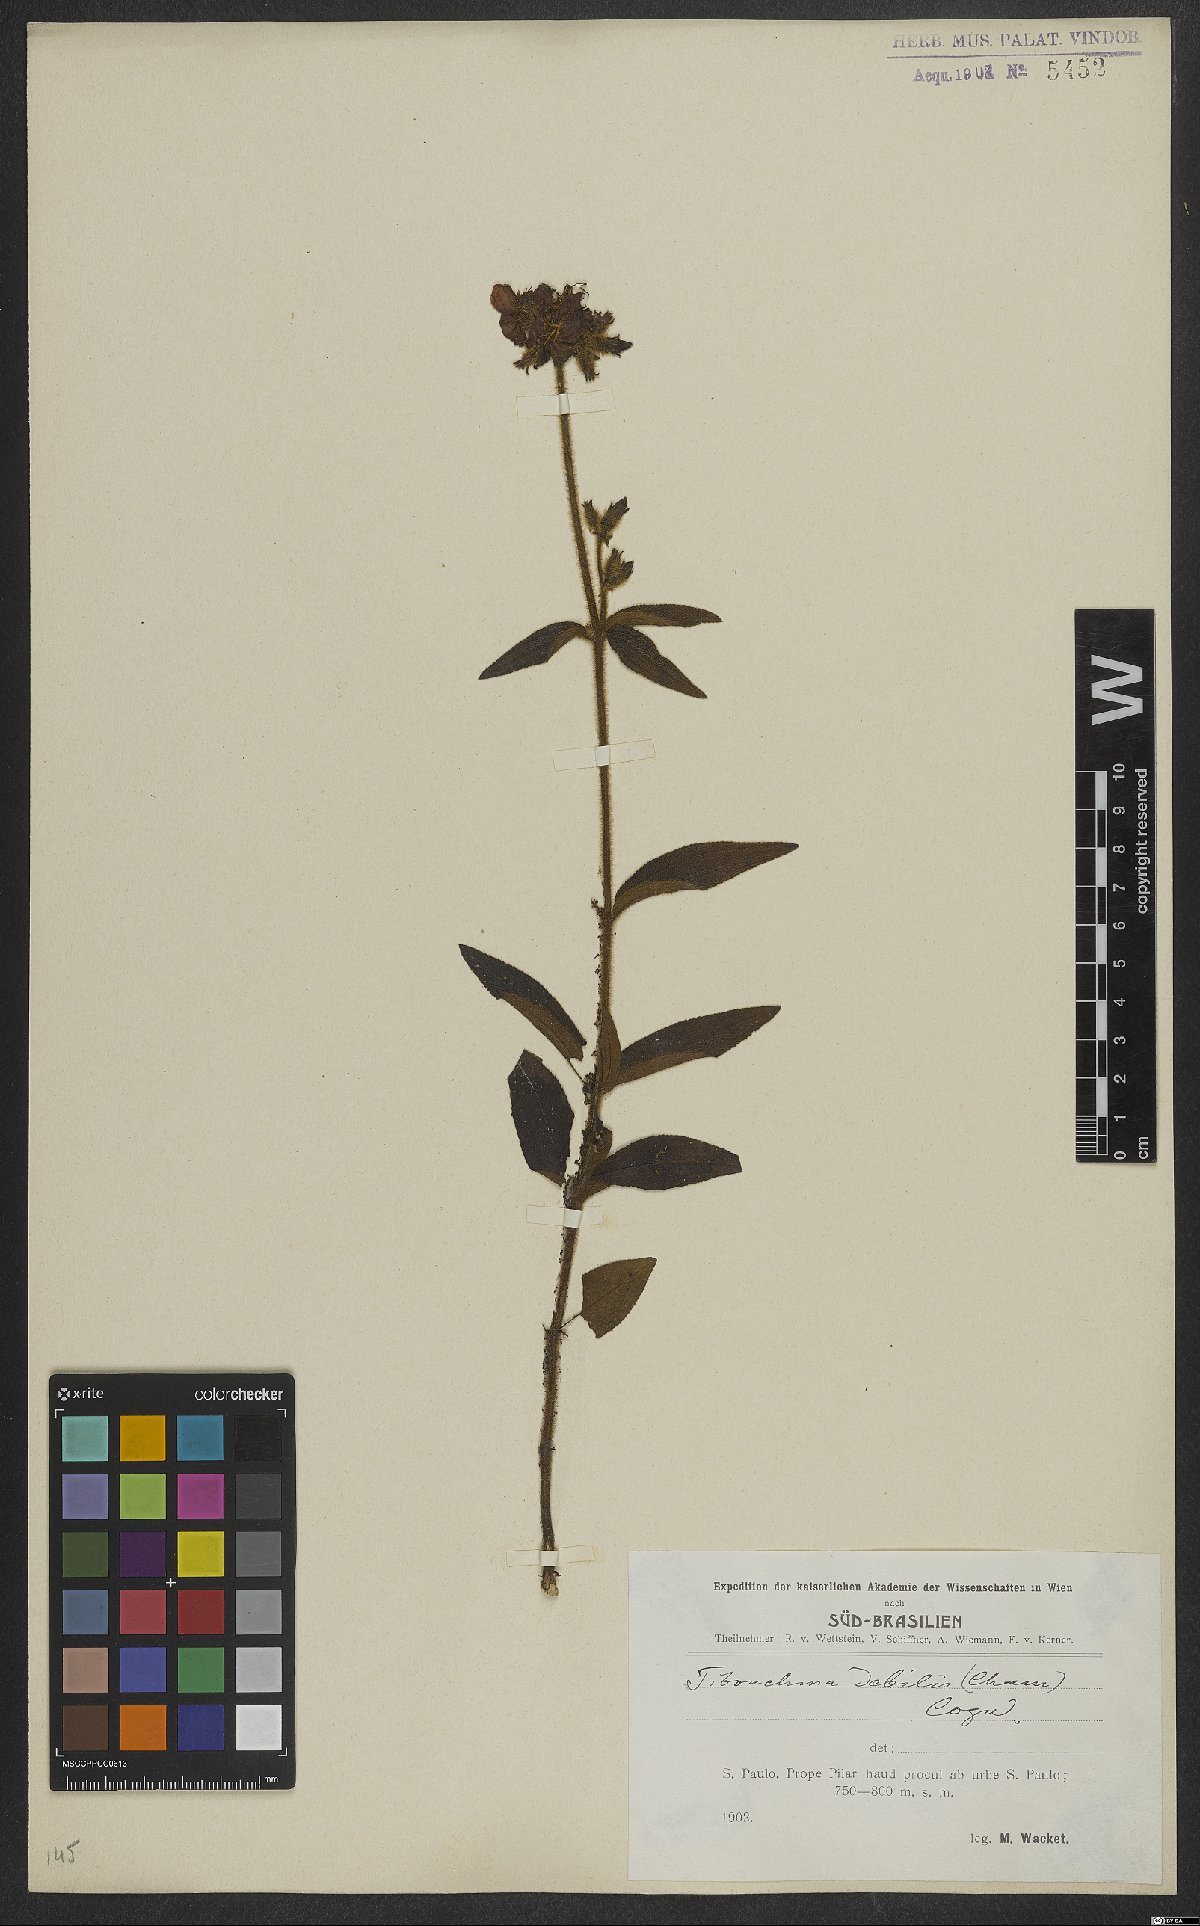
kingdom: Plantae
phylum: Tracheophyta
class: Magnoliopsida
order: Myrtales
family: Melastomataceae
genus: Chaetogastra
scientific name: Chaetogastra debilis
